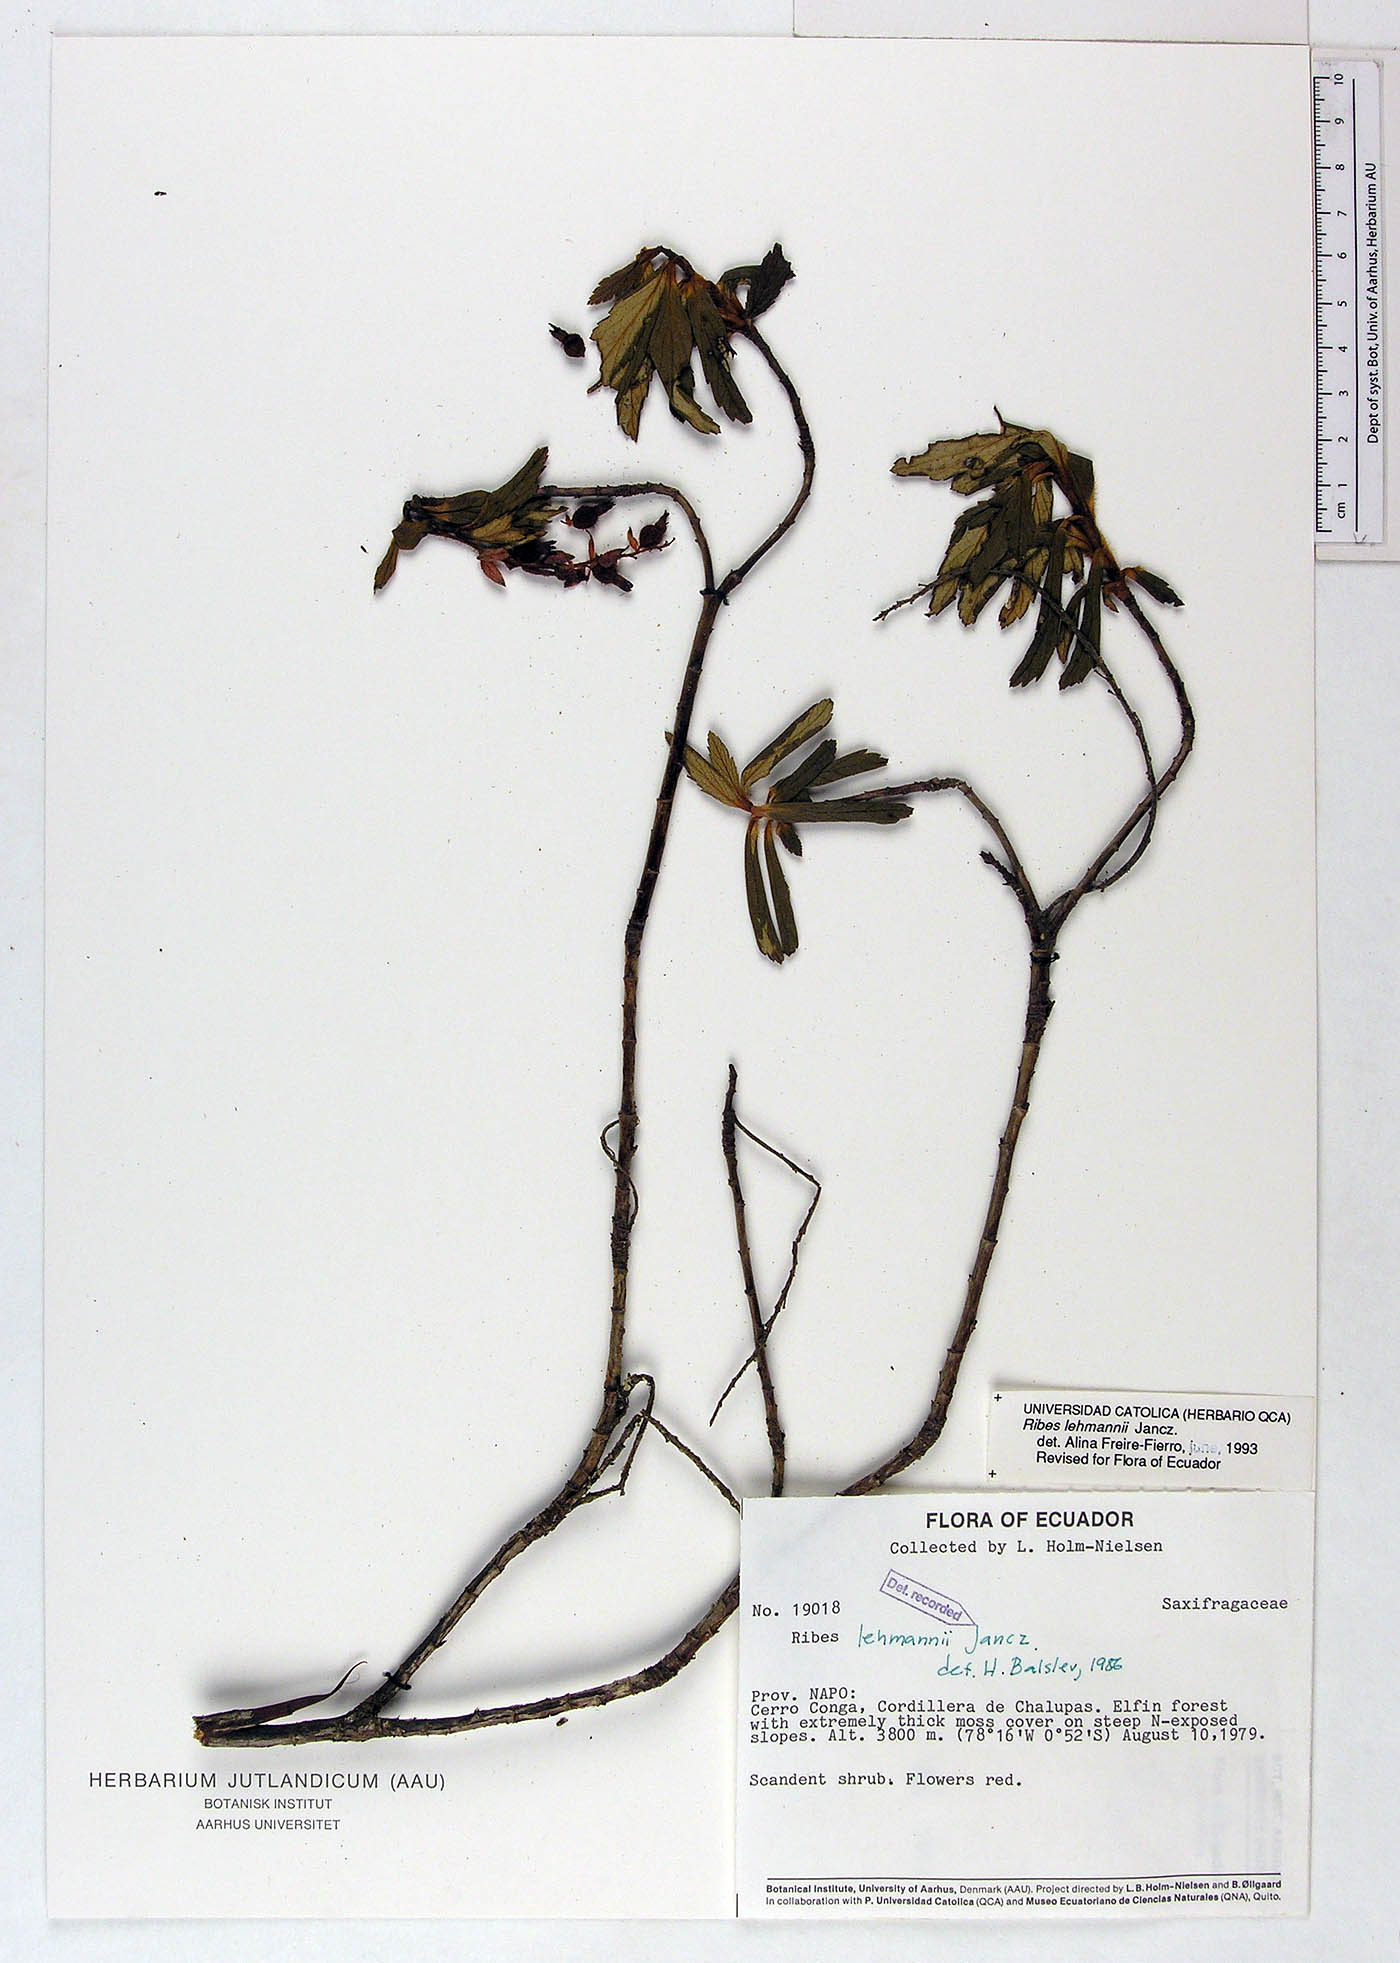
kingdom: Plantae
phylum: Tracheophyta
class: Magnoliopsida
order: Saxifragales
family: Grossulariaceae
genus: Ribes
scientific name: Ribes lehmannii
